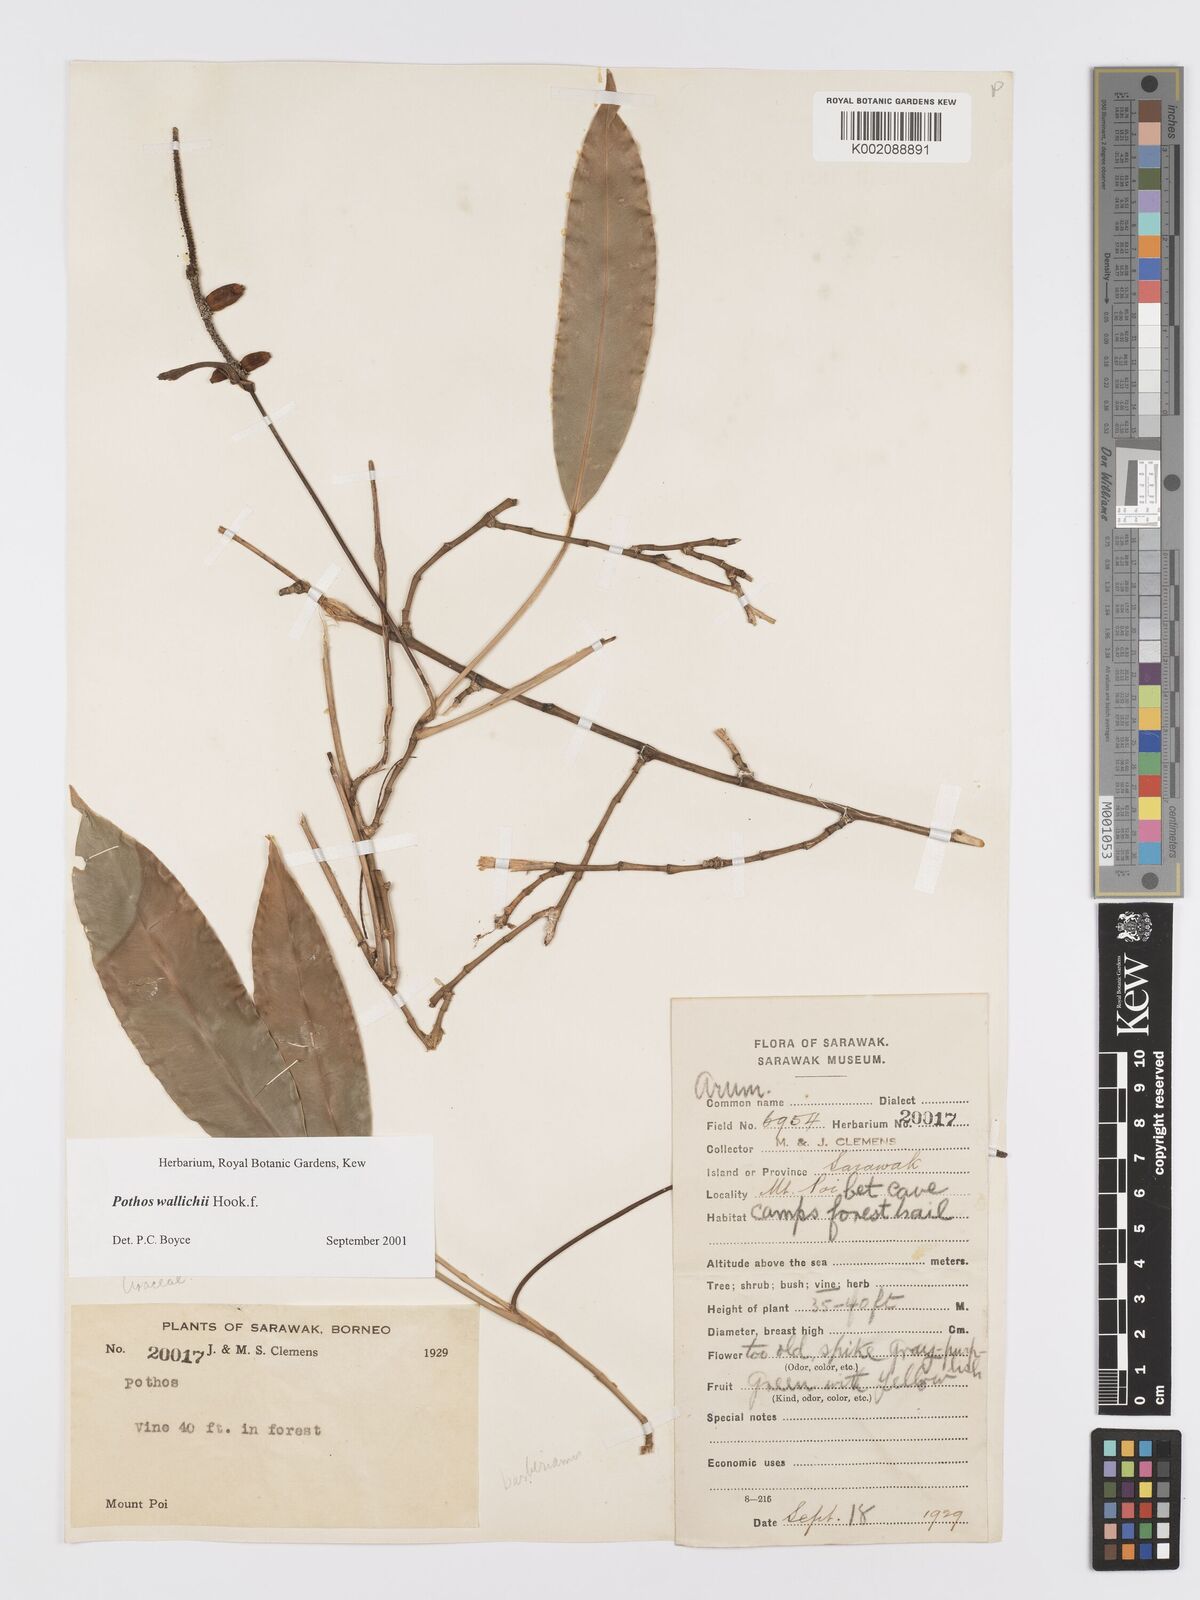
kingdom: Plantae
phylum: Tracheophyta
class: Liliopsida
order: Alismatales
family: Araceae
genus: Pothos
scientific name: Pothos wallichii
